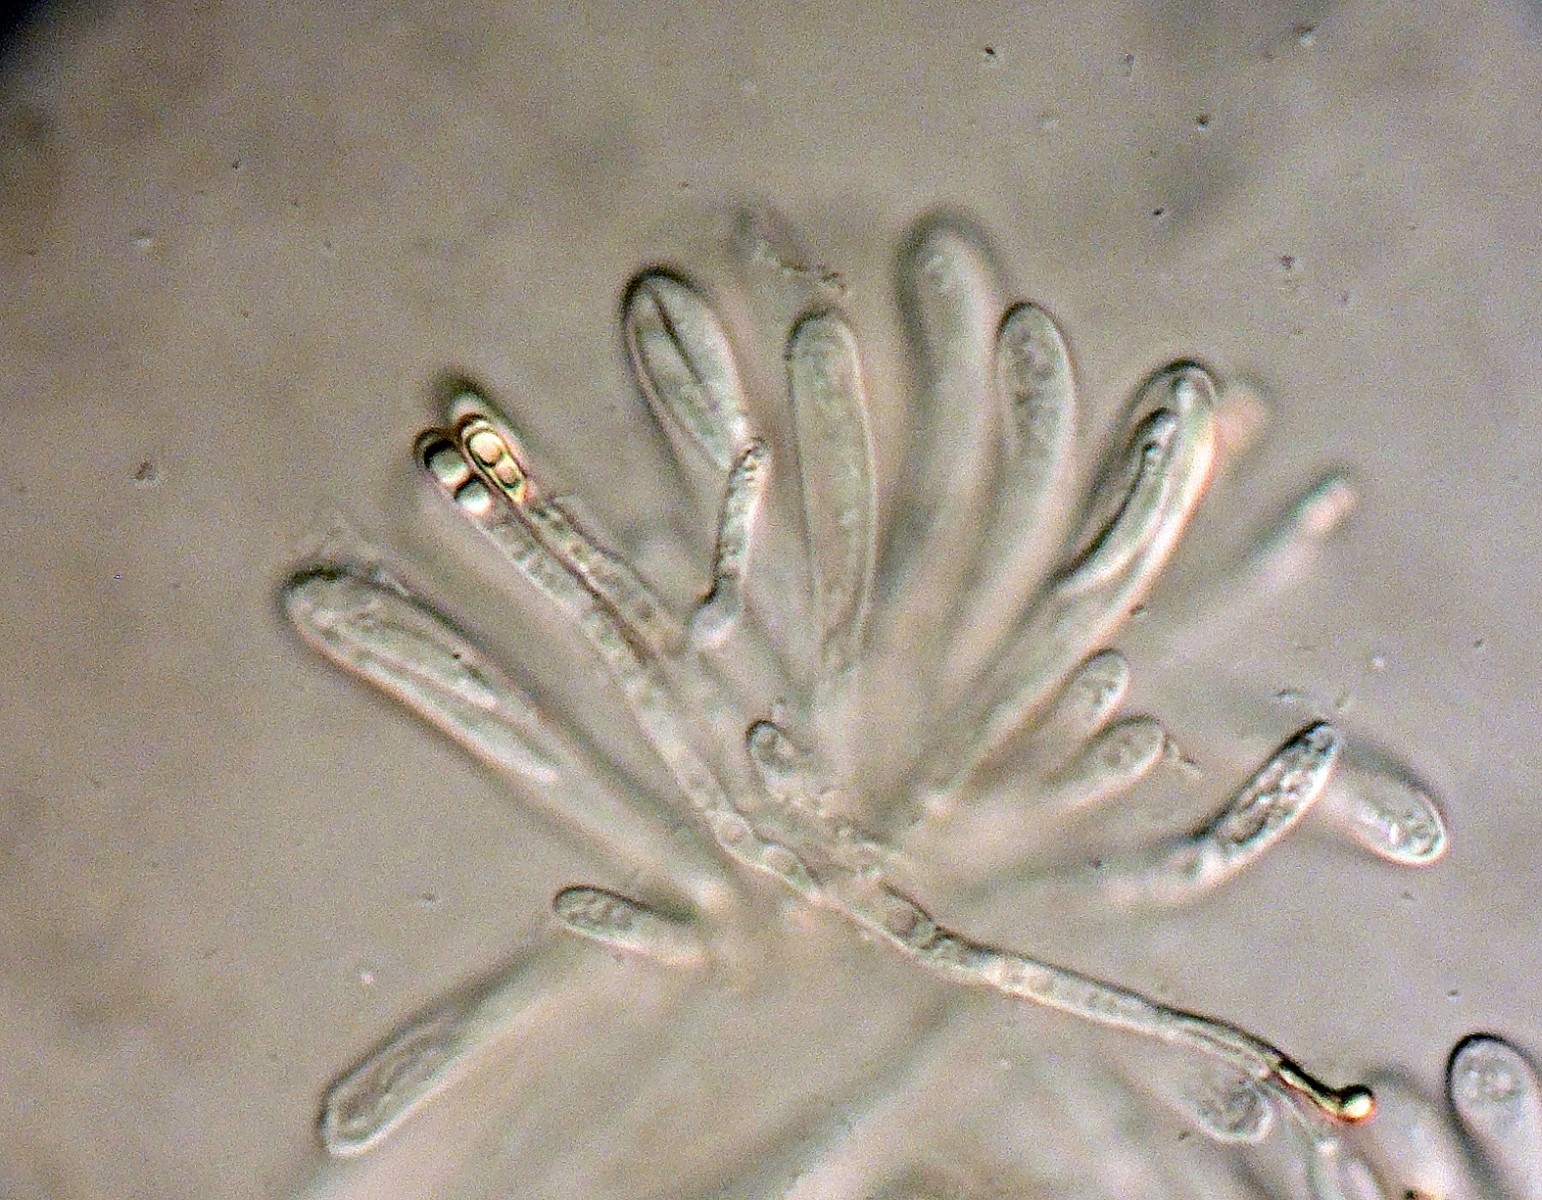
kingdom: Fungi
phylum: Ascomycota
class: Leotiomycetes
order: Helotiales
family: Pezizellaceae
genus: Calycellina
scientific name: Calycellina lachnobrachya
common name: firesporet hårskive
